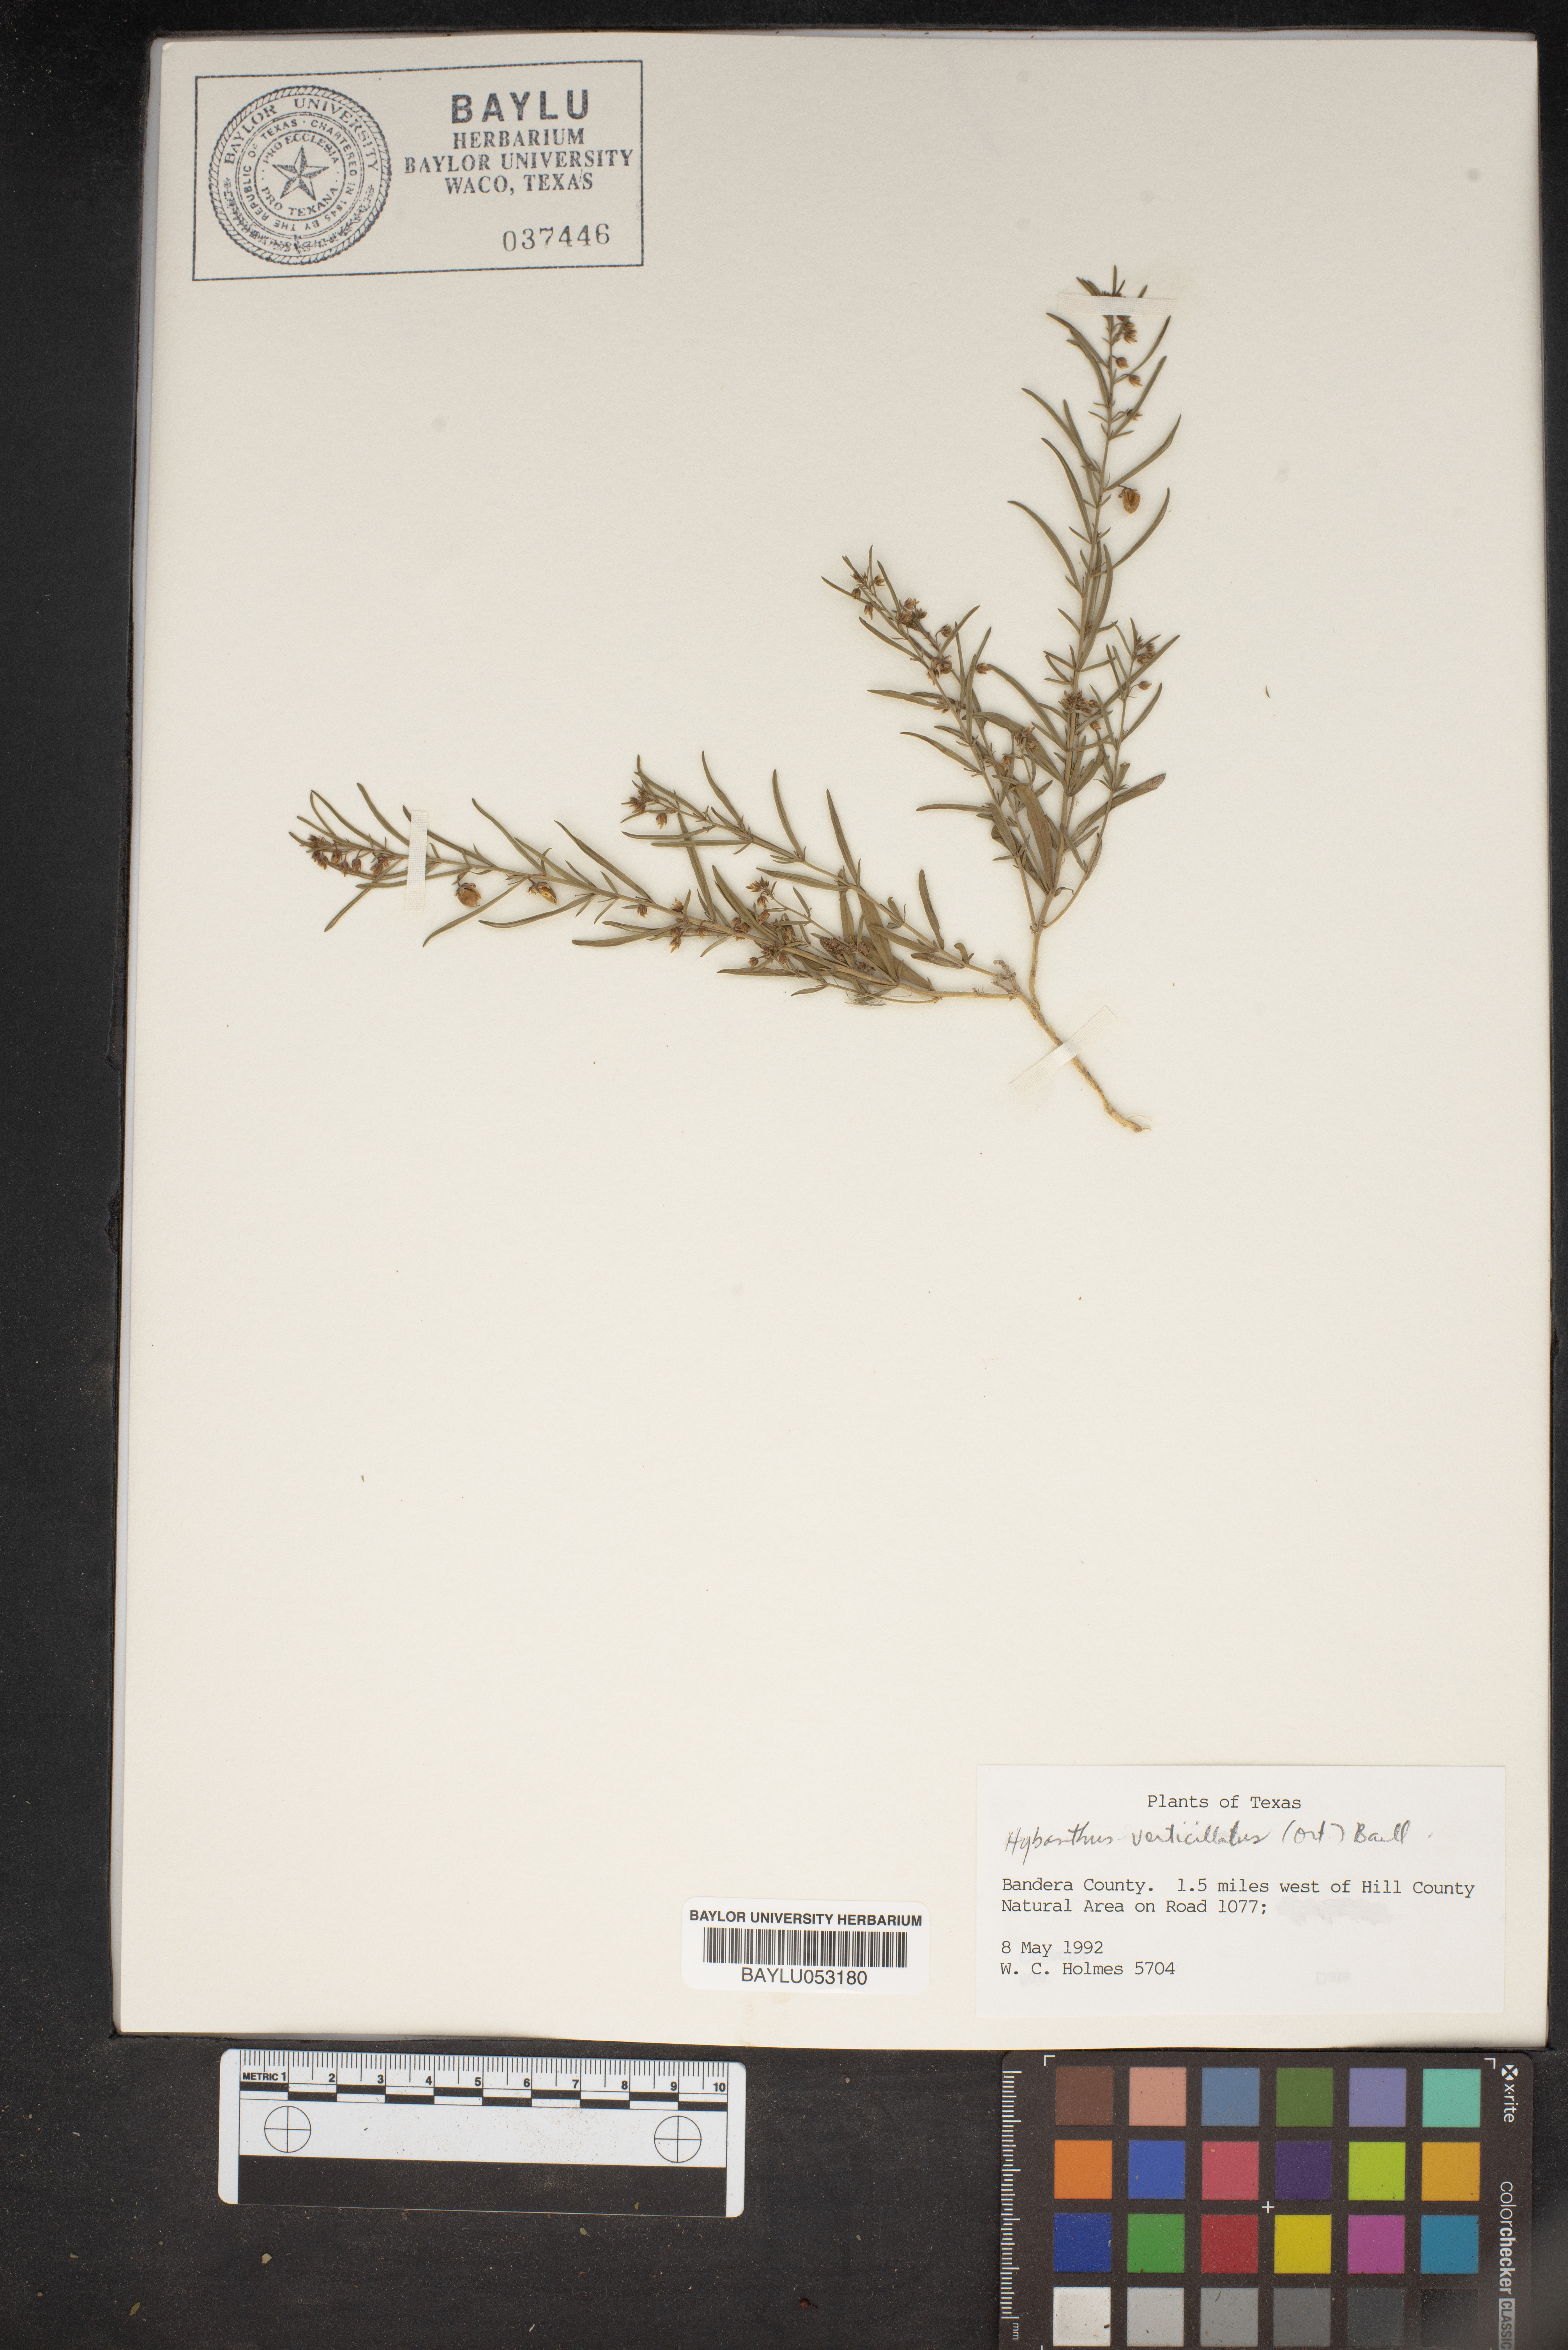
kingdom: Plantae
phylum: Tracheophyta
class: Magnoliopsida
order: Malpighiales
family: Violaceae
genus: Pombalia
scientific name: Pombalia verticillata
